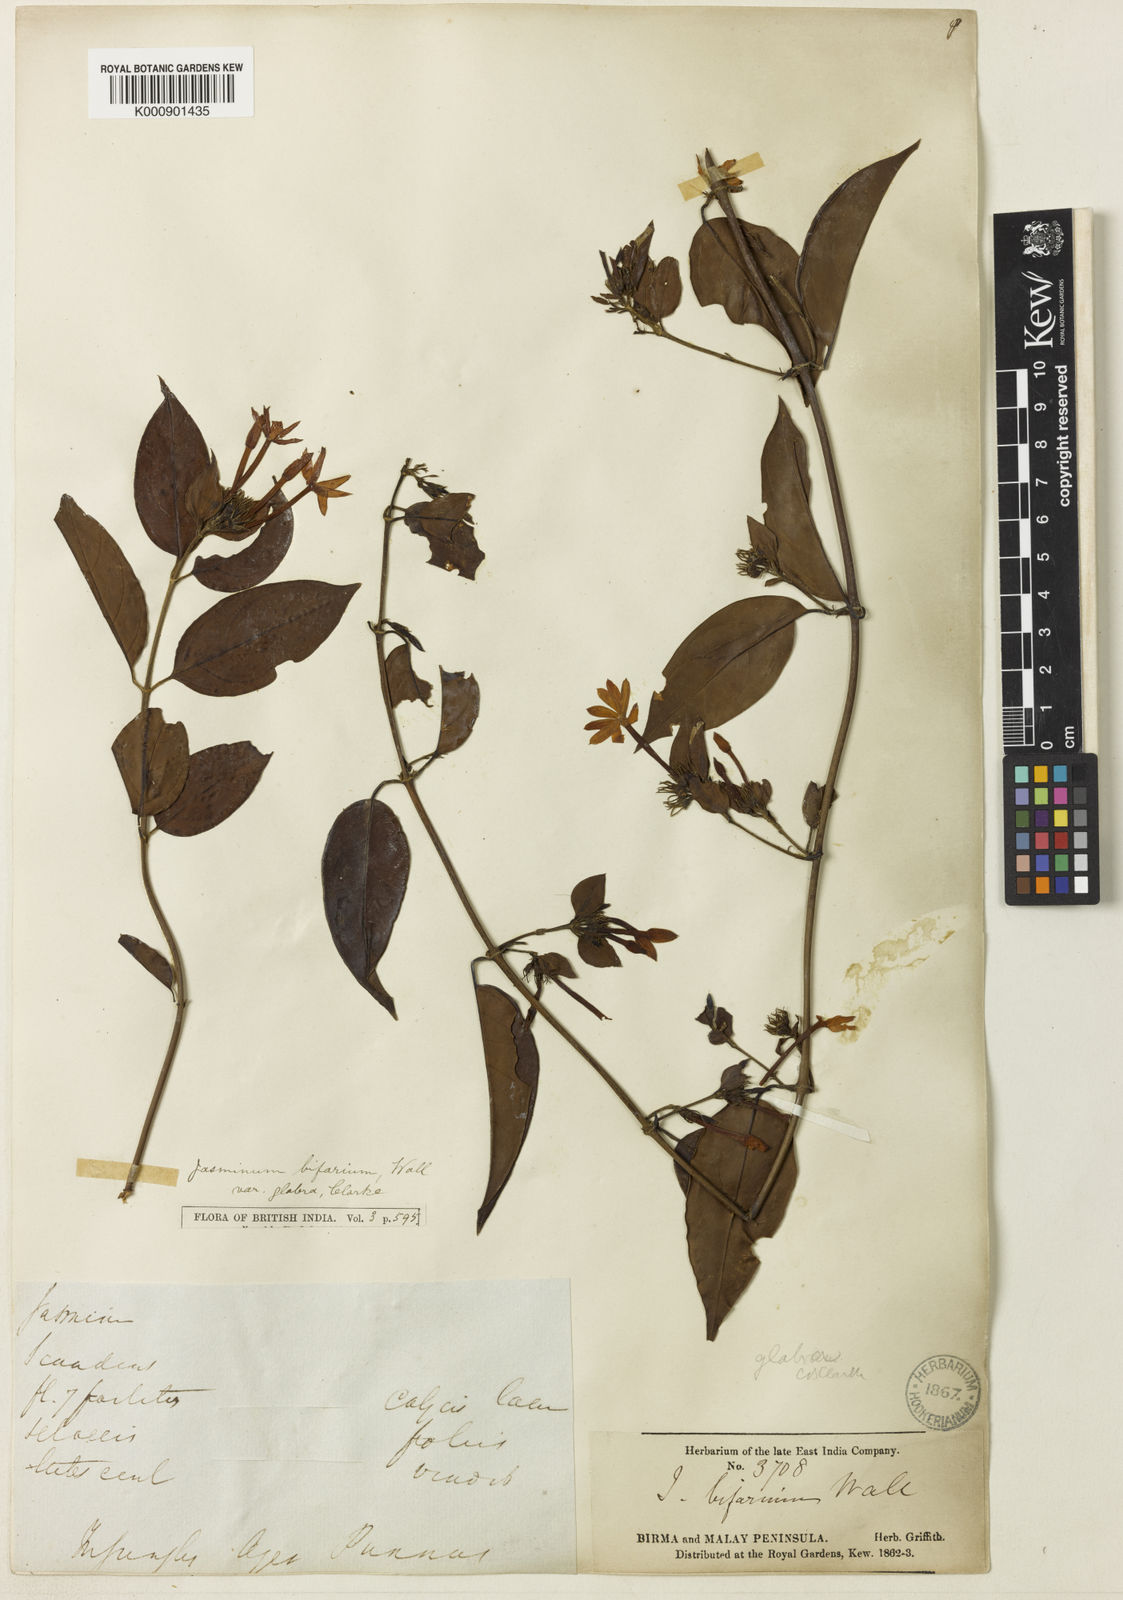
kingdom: Plantae
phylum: Tracheophyta
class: Magnoliopsida
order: Lamiales
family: Oleaceae
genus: Jasminum
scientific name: Jasminum elongatum
